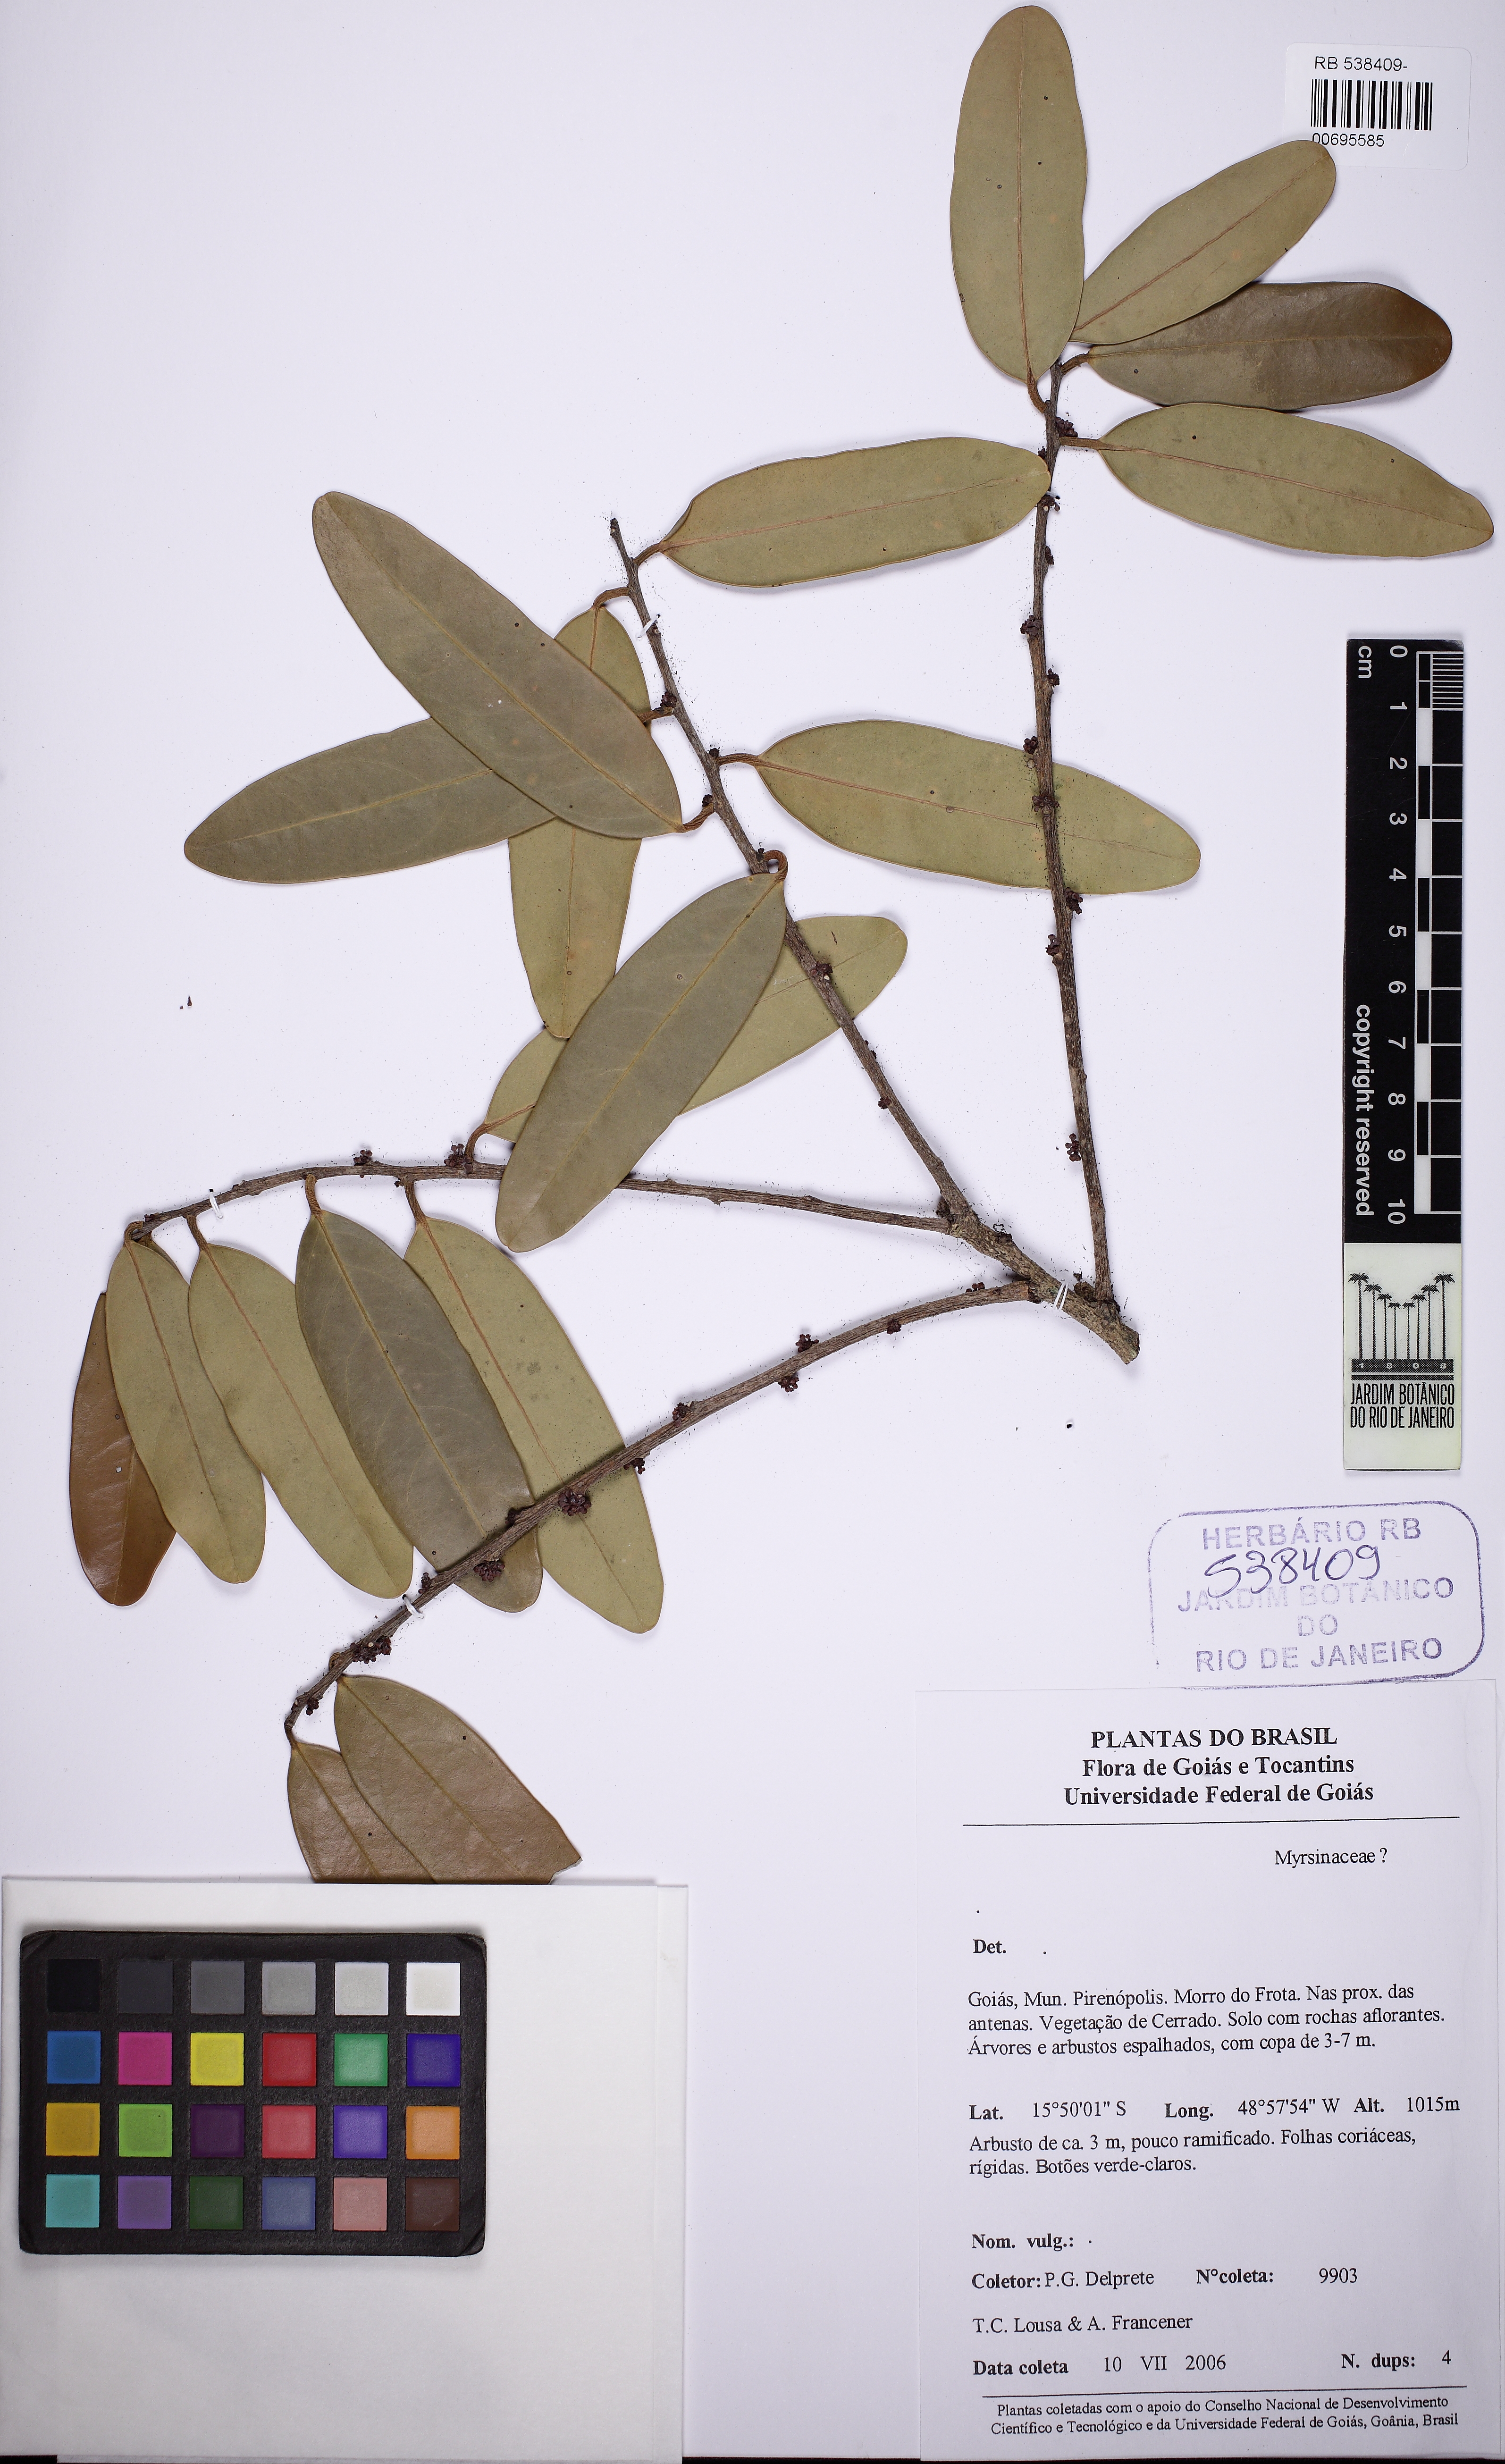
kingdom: Plantae
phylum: Tracheophyta
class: Magnoliopsida
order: Ericales
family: Primulaceae
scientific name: Primulaceae
